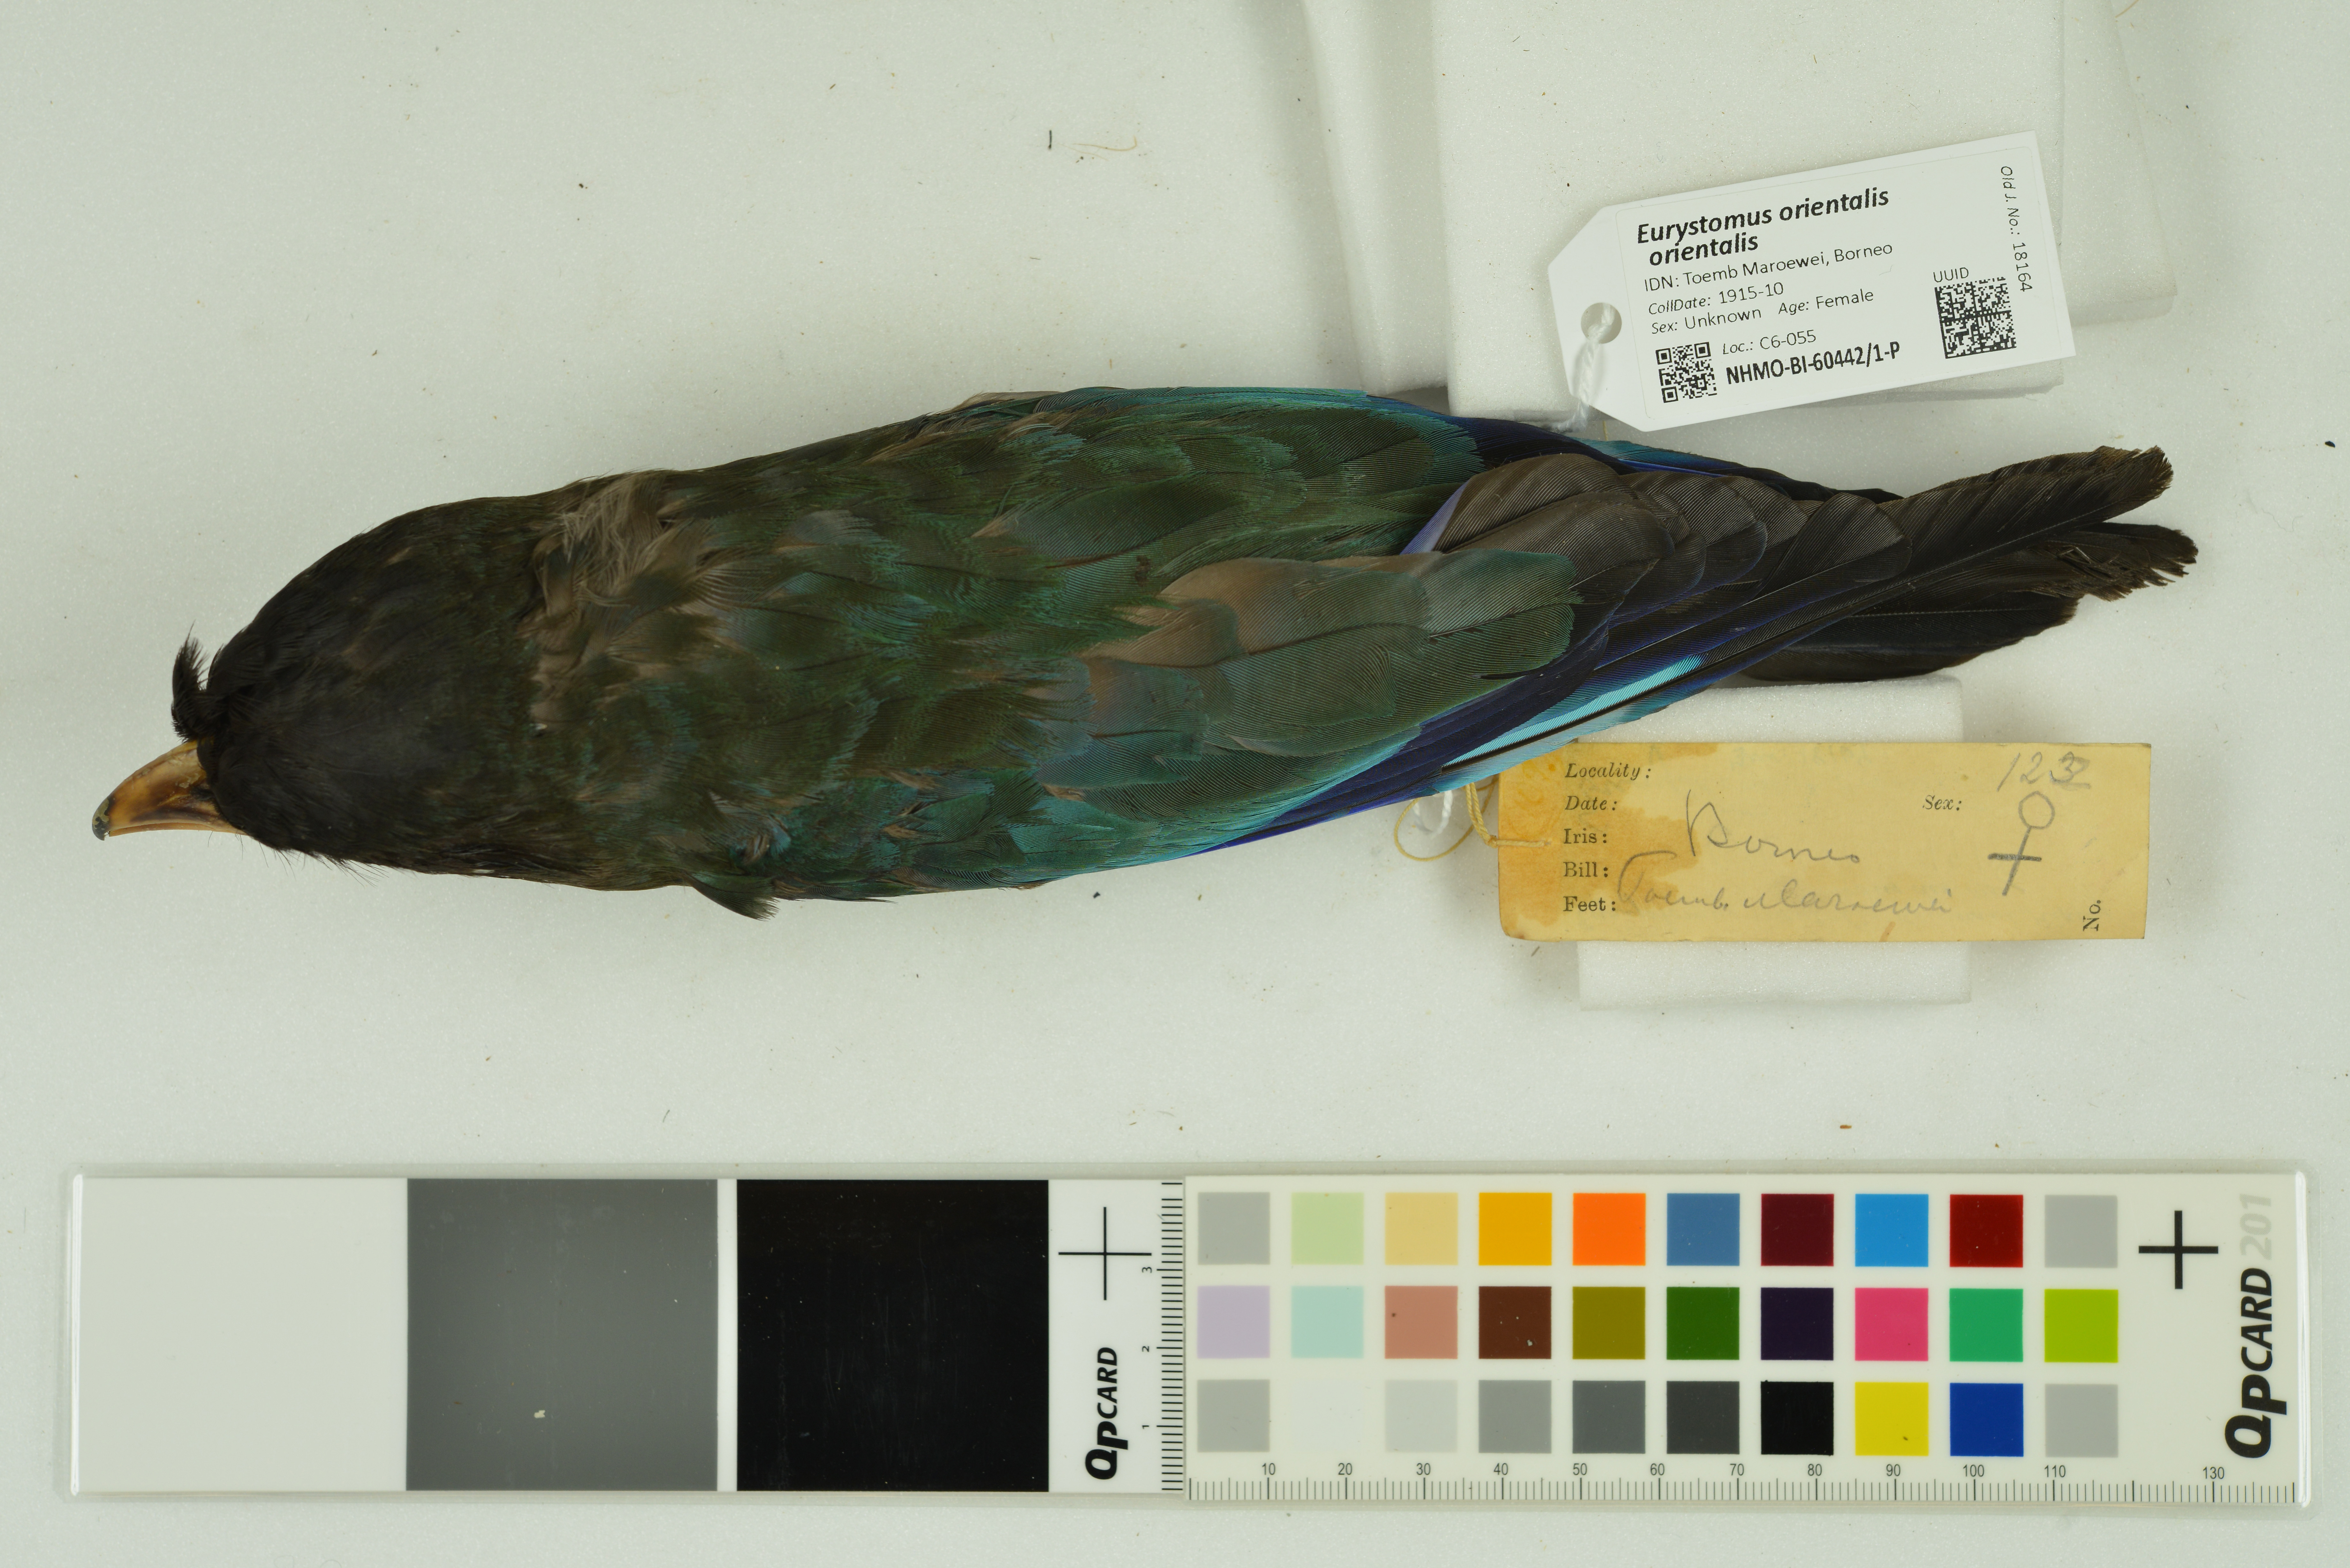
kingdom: Animalia
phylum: Chordata
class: Aves
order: Coraciiformes
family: Coraciidae
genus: Eurystomus
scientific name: Eurystomus orientalis
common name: Oriental dollarbird
